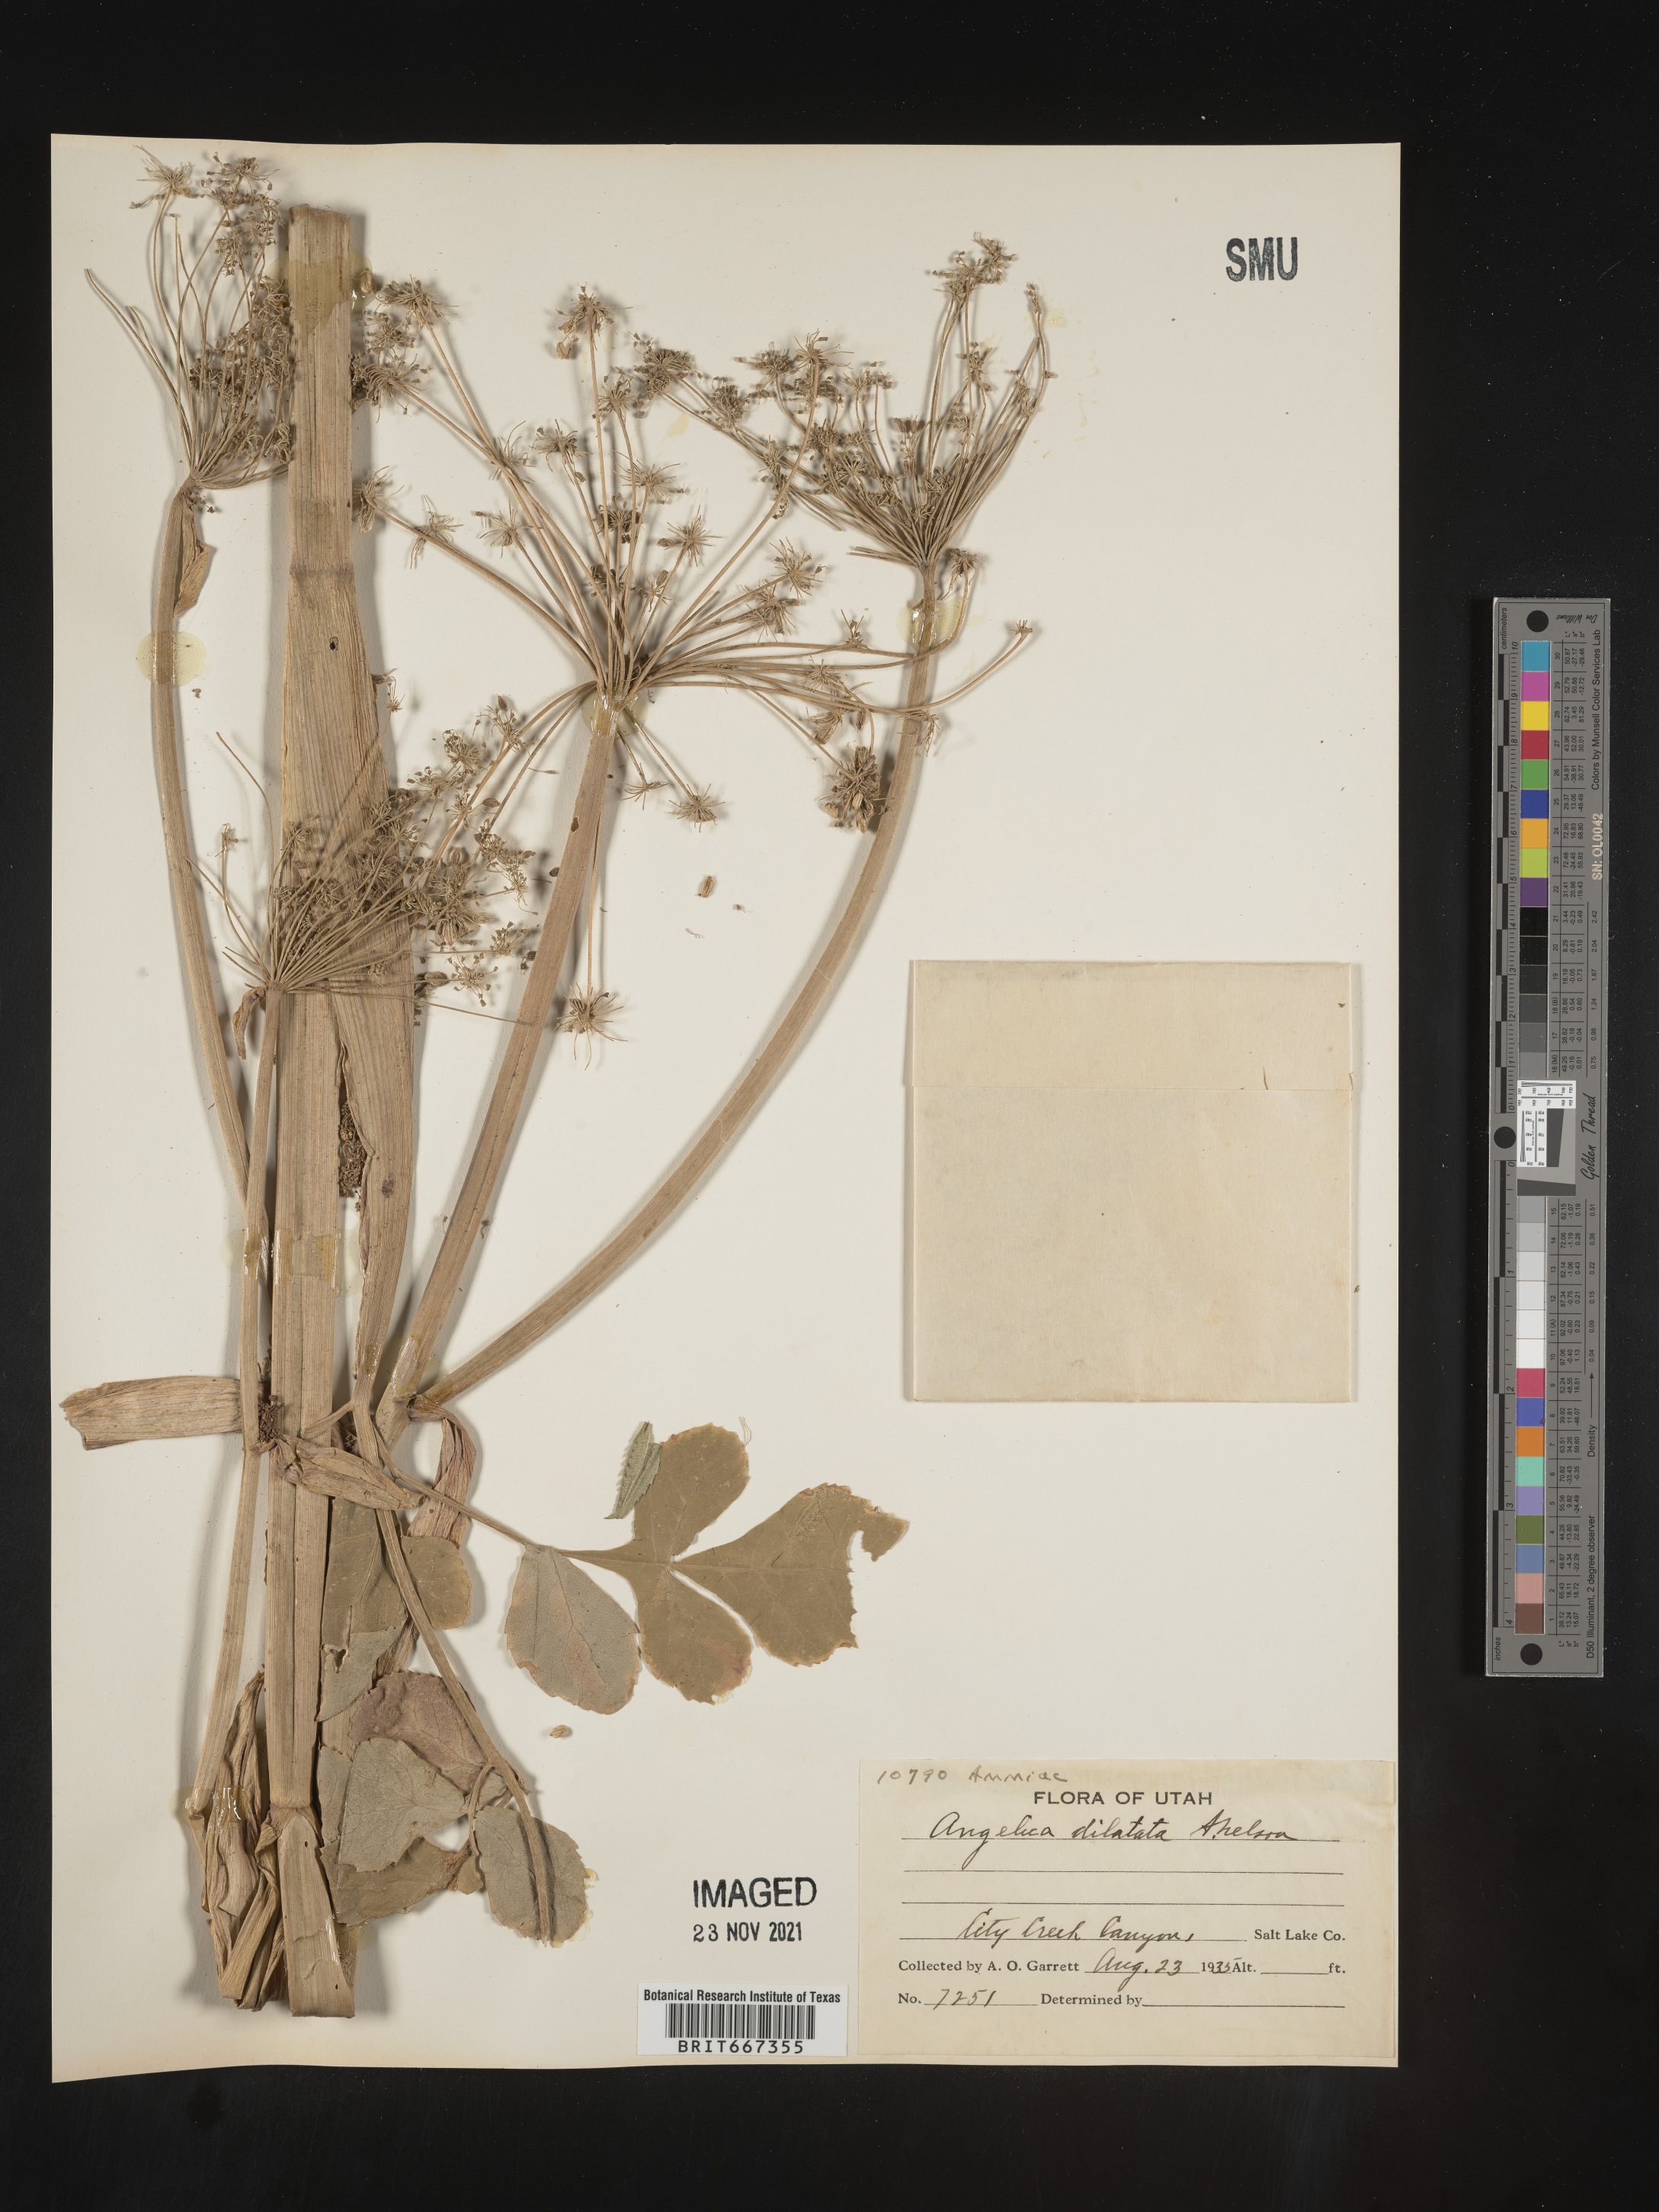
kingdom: Plantae
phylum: Tracheophyta
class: Magnoliopsida
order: Apiales
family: Apiaceae
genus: Angelica
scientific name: Angelica
